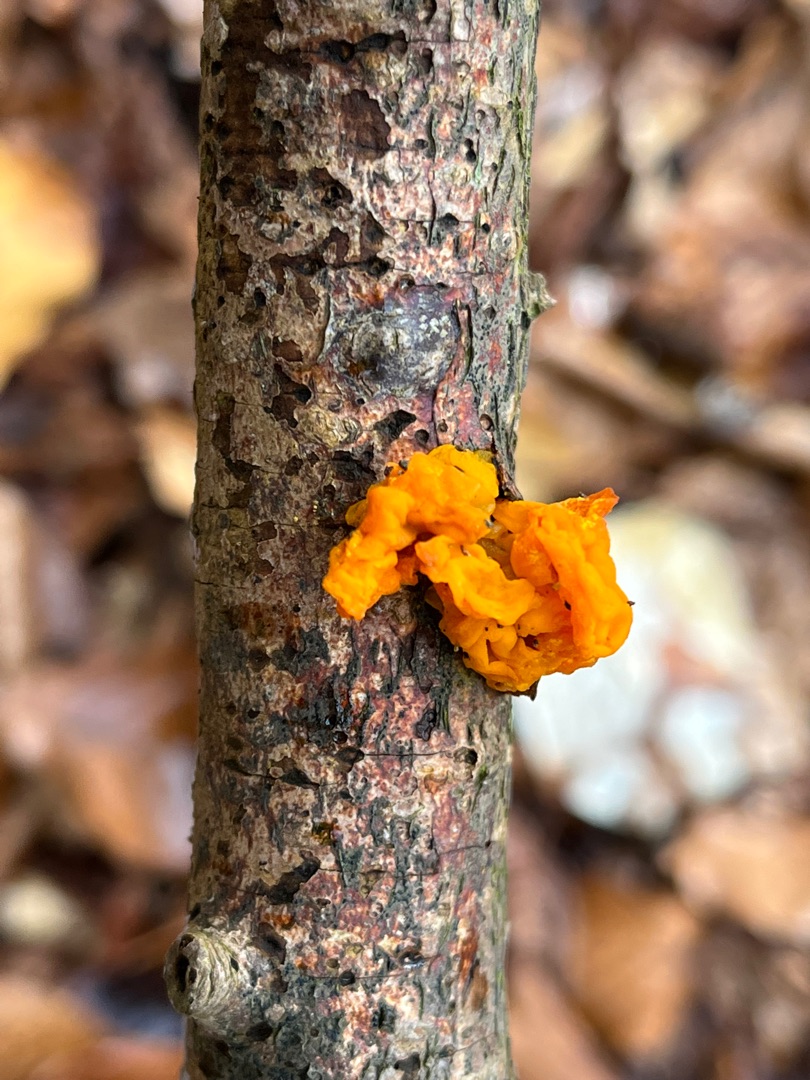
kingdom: Fungi
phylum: Basidiomycota
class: Tremellomycetes
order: Tremellales
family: Tremellaceae
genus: Tremella
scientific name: Tremella mesenterica
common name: Gul bævresvamp
